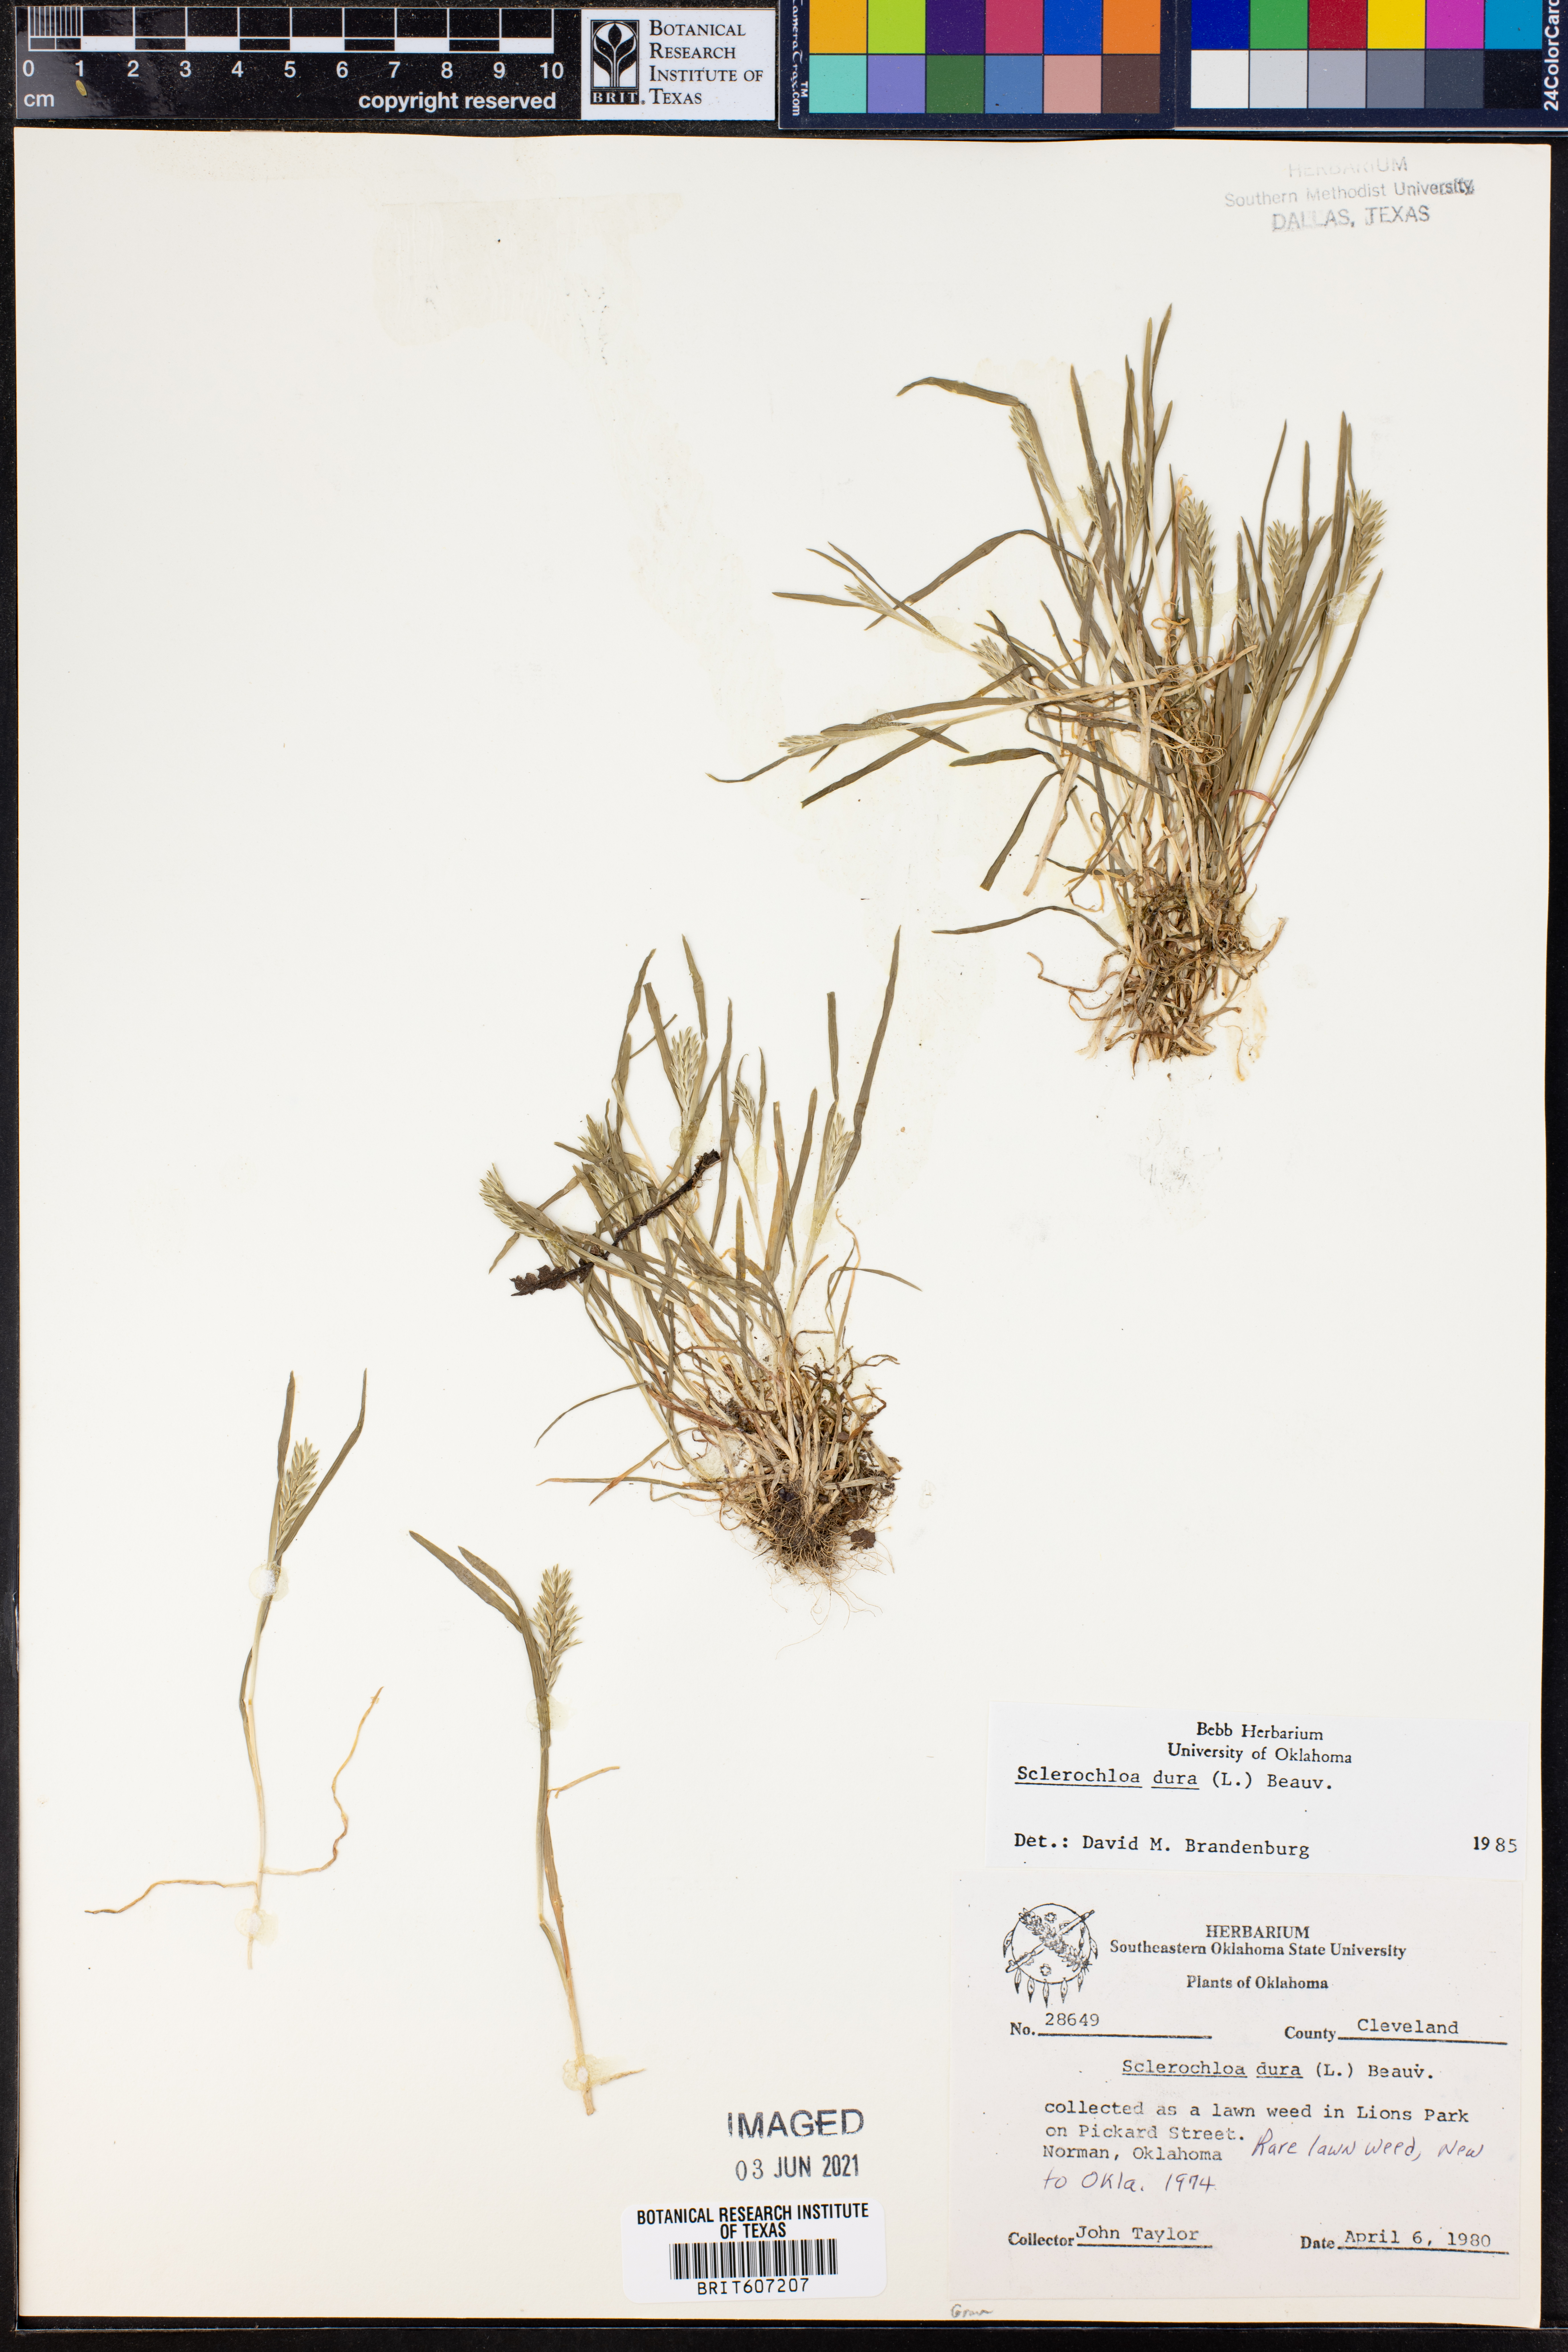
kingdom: Plantae
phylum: Tracheophyta
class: Liliopsida
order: Poales
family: Poaceae
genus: Sclerochloa
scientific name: Sclerochloa dura
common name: Common hardgrass
